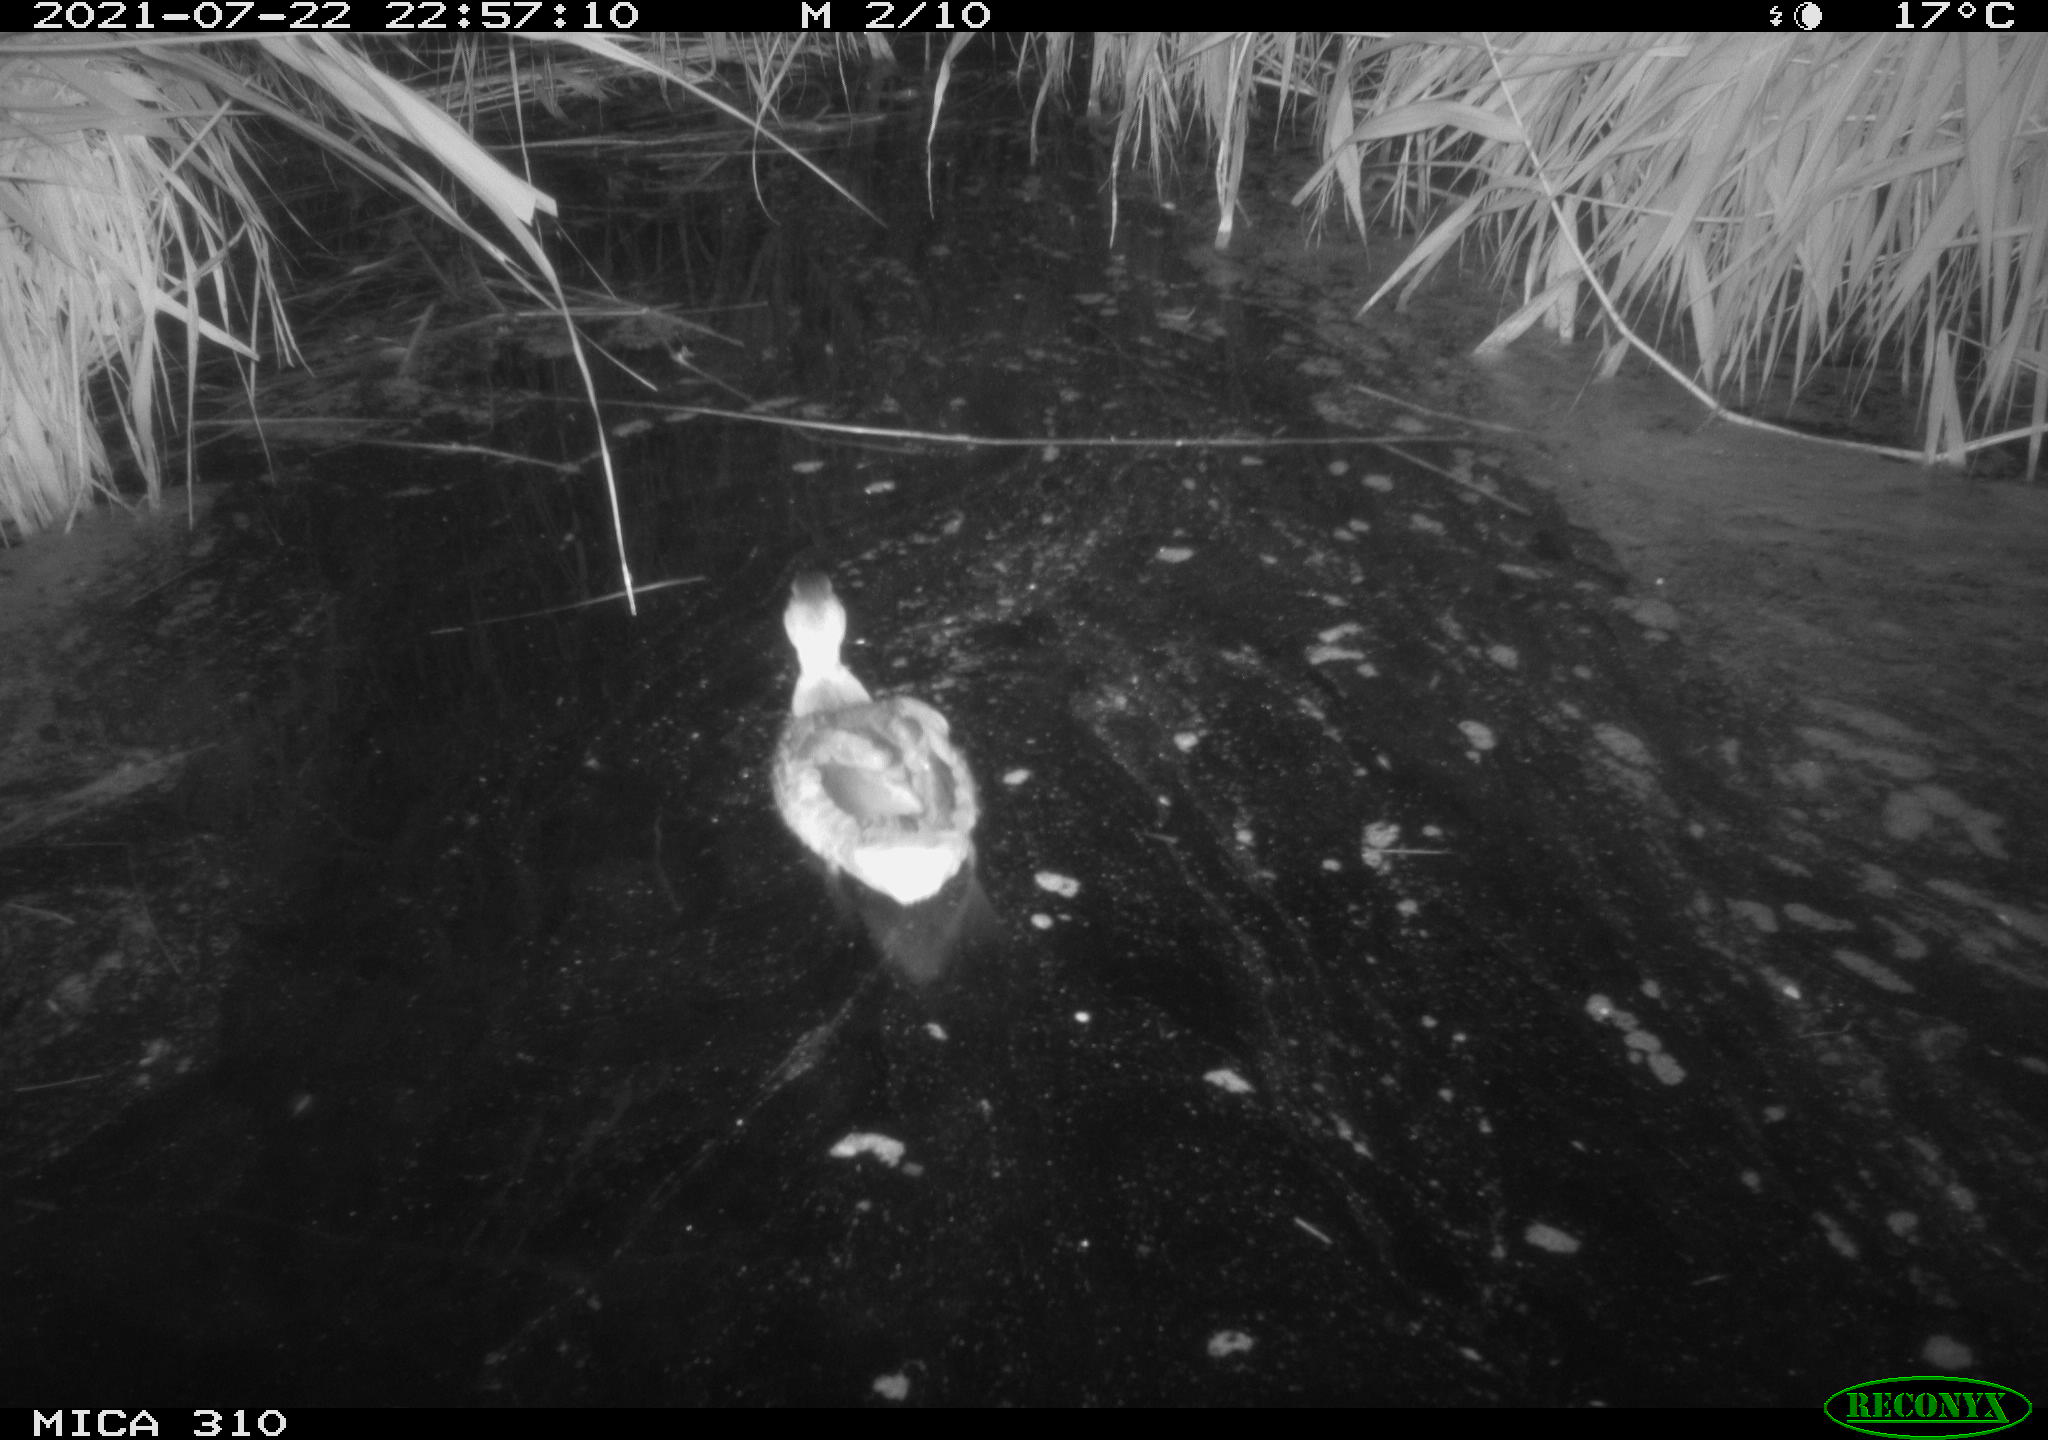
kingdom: Animalia
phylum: Chordata
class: Aves
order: Anseriformes
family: Anatidae
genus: Anas
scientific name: Anas platyrhynchos
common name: Mallard
